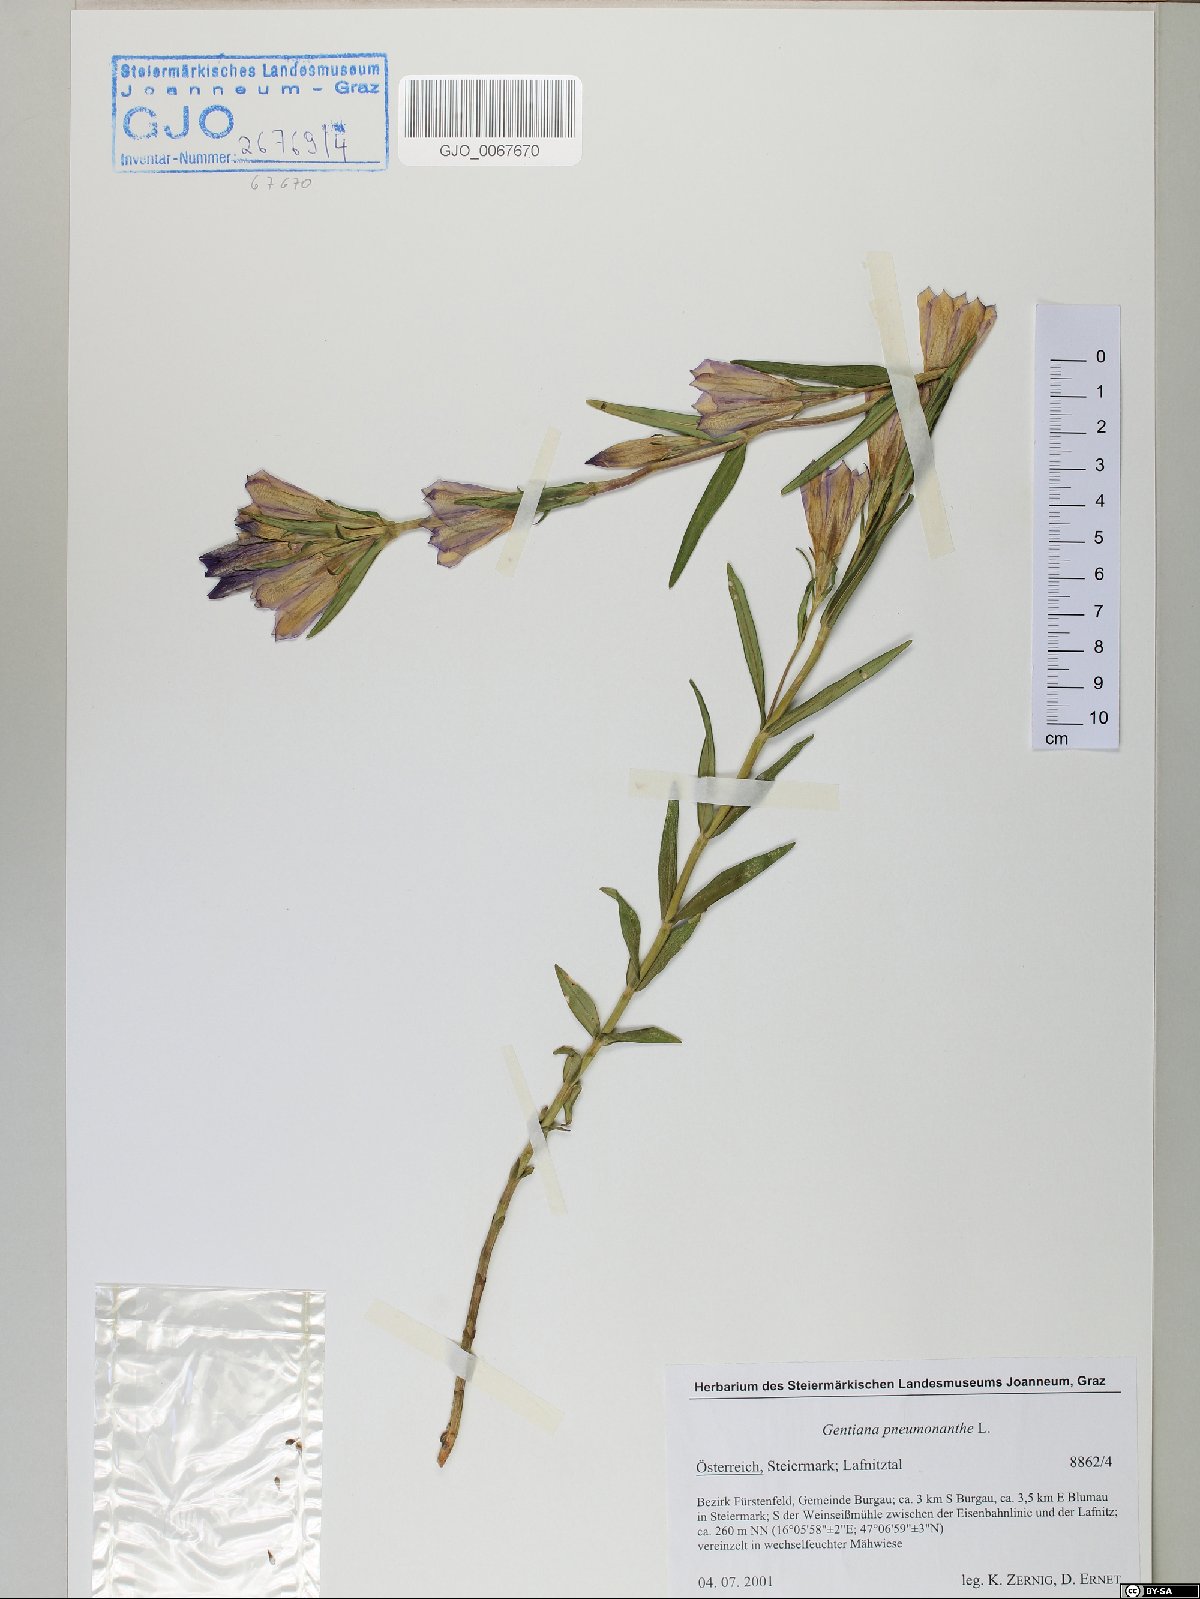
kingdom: Plantae
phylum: Tracheophyta
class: Magnoliopsida
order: Gentianales
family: Gentianaceae
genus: Gentiana
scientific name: Gentiana pneumonanthe
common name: Marsh gentian
